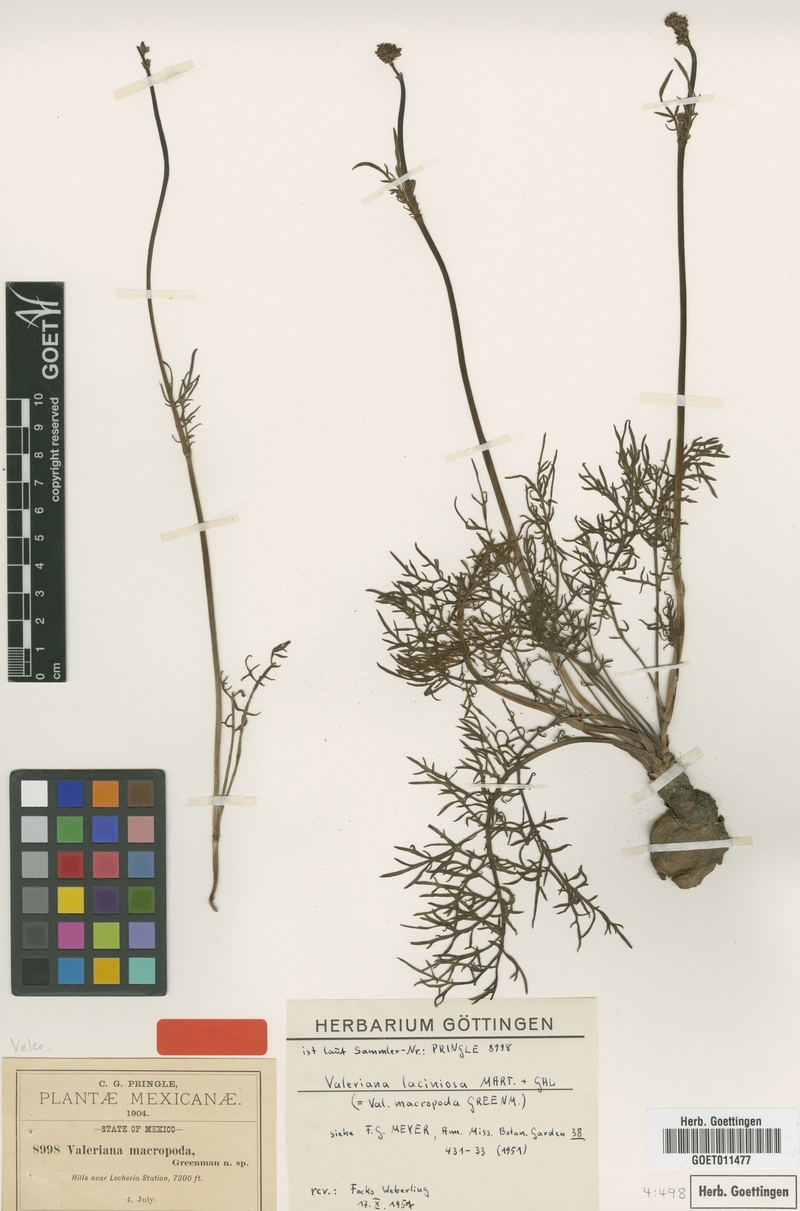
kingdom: Plantae
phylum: Tracheophyta
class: Magnoliopsida
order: Dipsacales
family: Caprifoliaceae
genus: Valeriana
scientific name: Valeriana laciniosa
